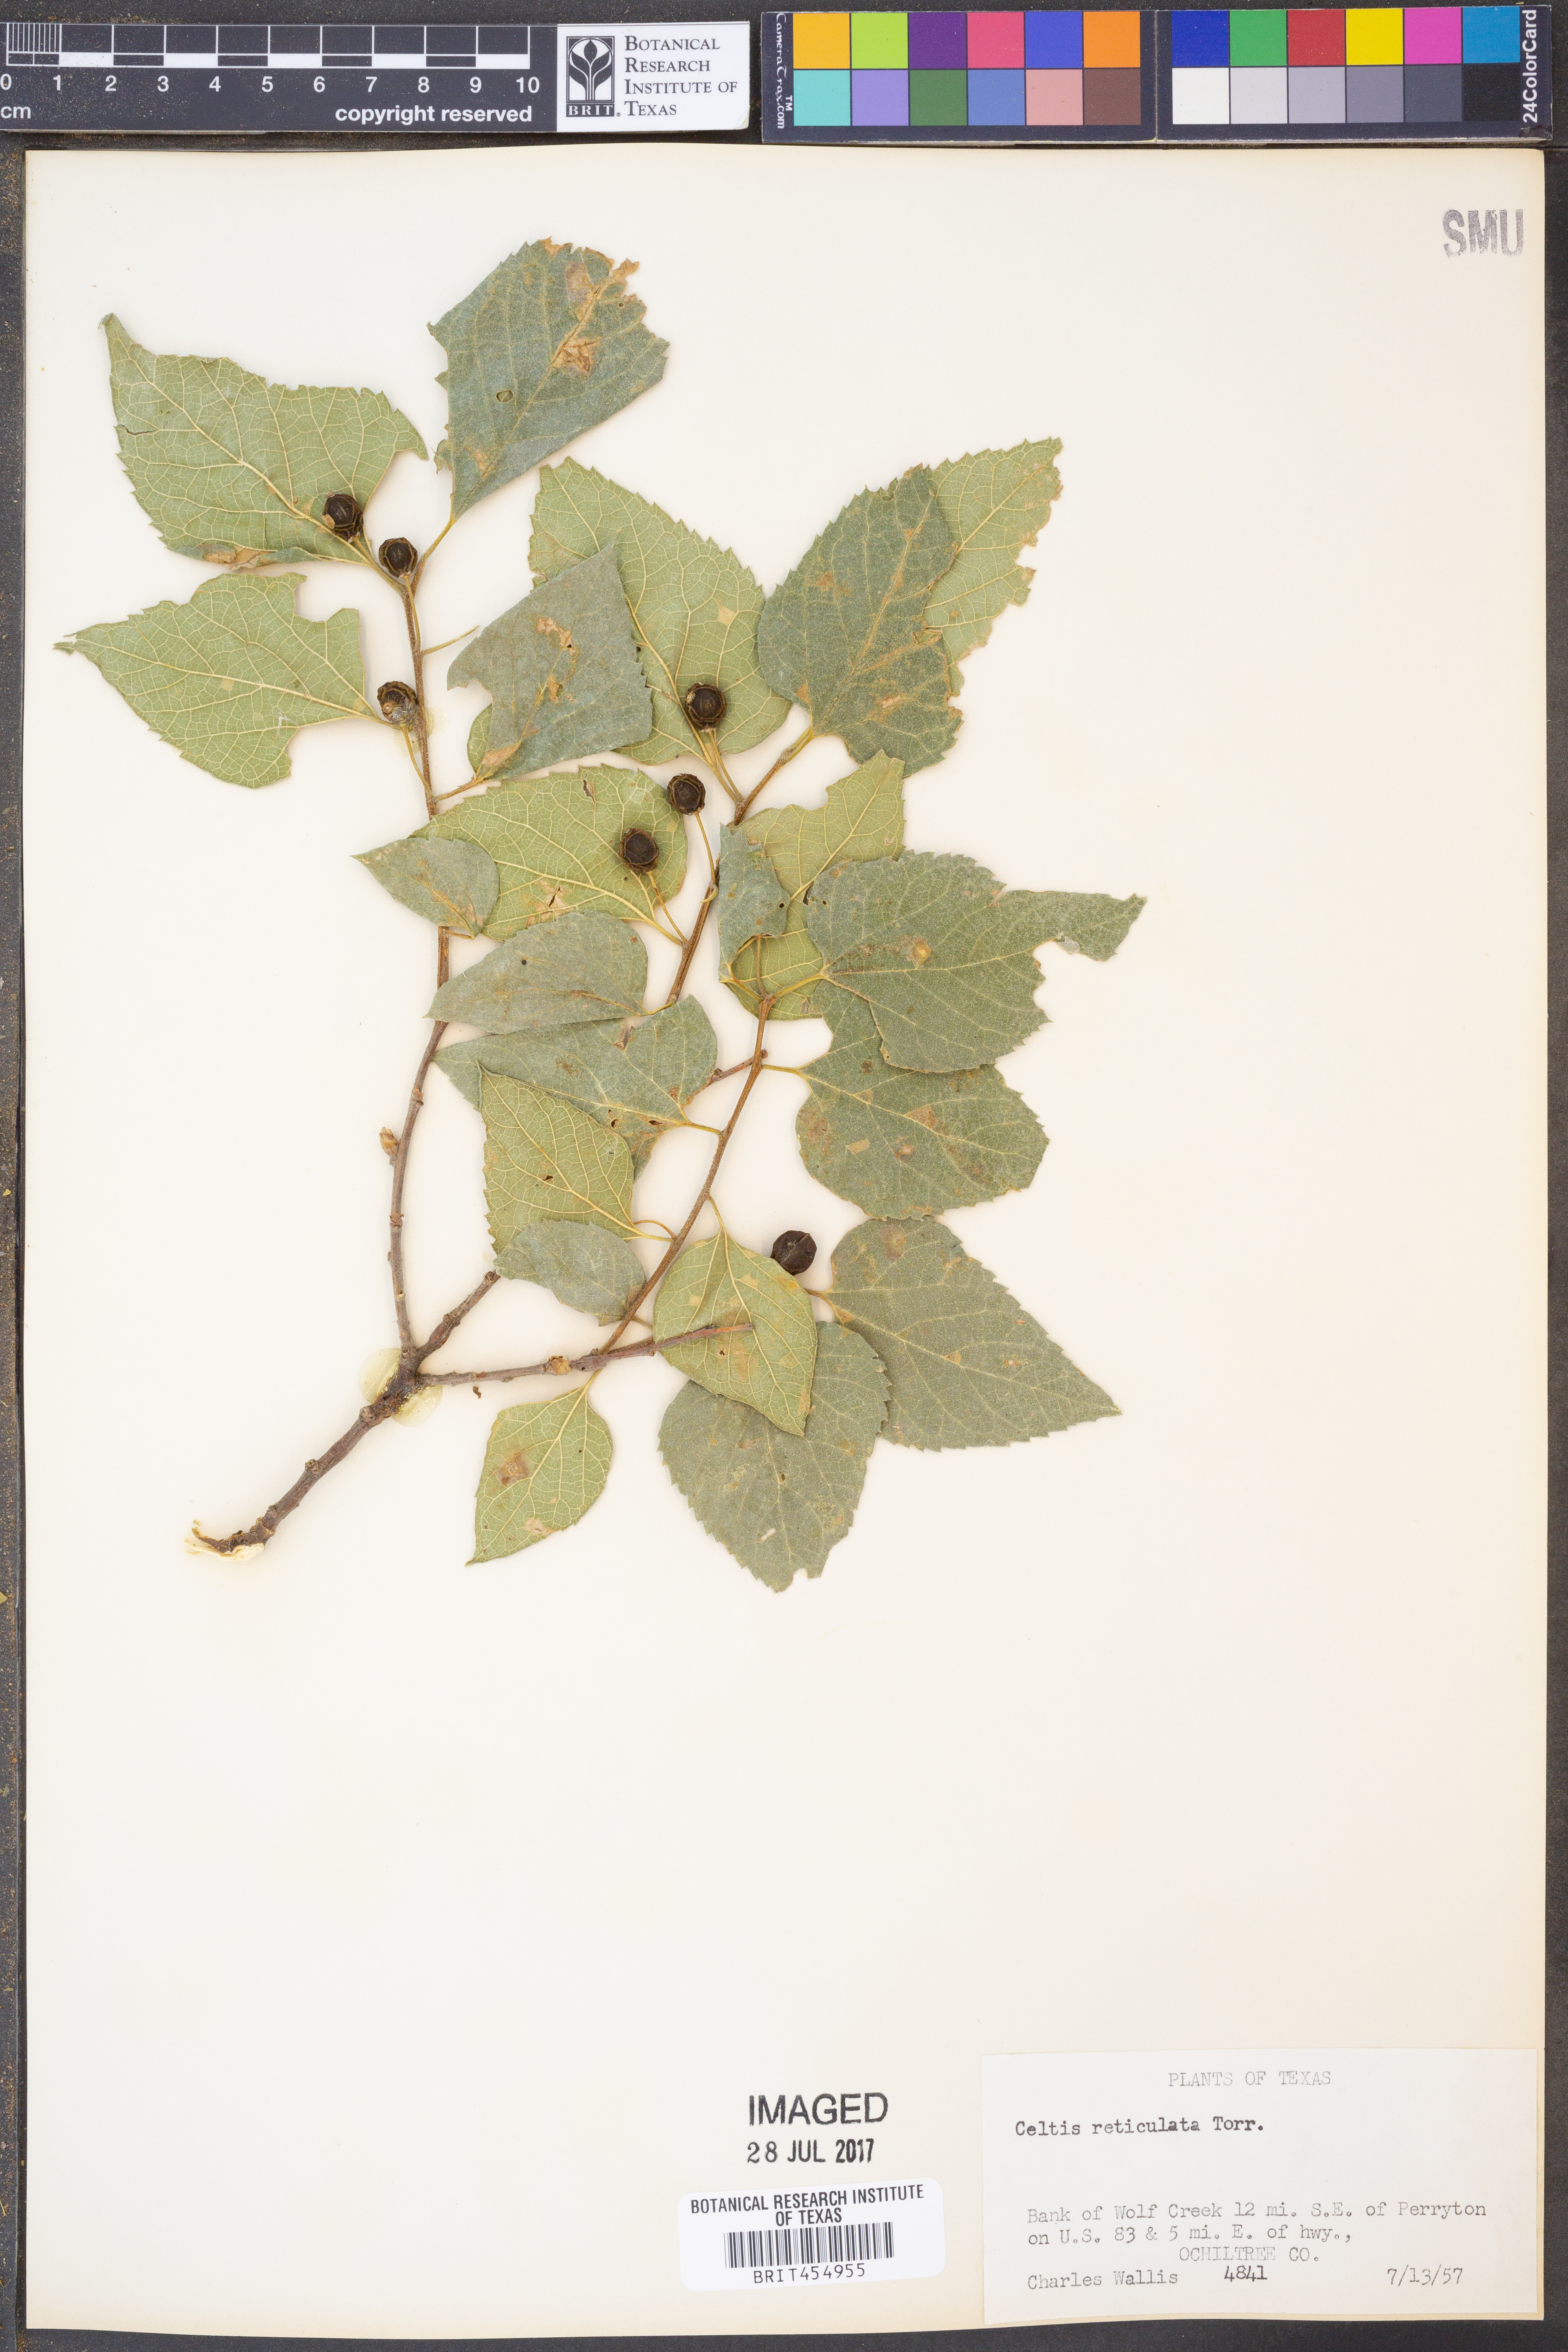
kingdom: Plantae
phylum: Tracheophyta
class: Magnoliopsida
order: Rosales
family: Cannabaceae
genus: Celtis
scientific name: Celtis reticulata
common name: Netleaf hackberry
